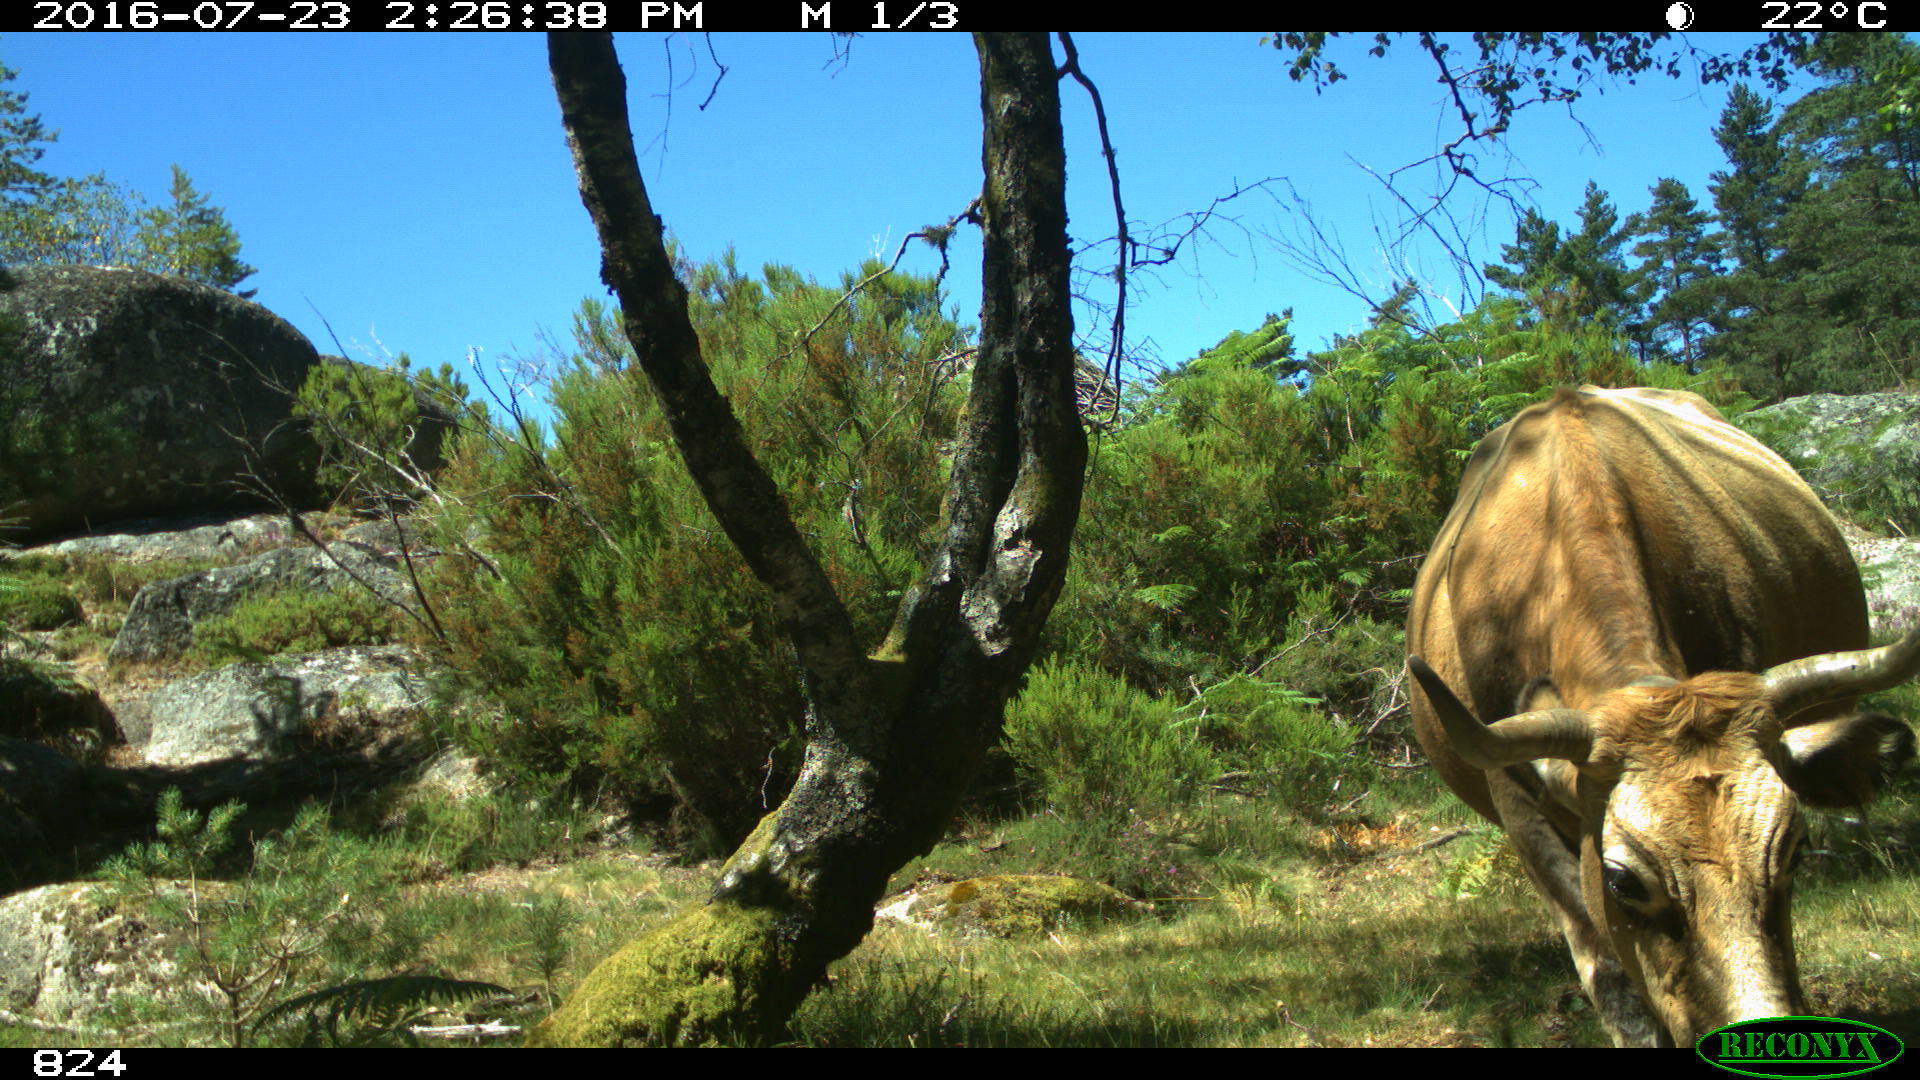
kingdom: Animalia
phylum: Chordata
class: Mammalia
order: Artiodactyla
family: Bovidae
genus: Bos
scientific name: Bos taurus
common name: Domesticated cattle
